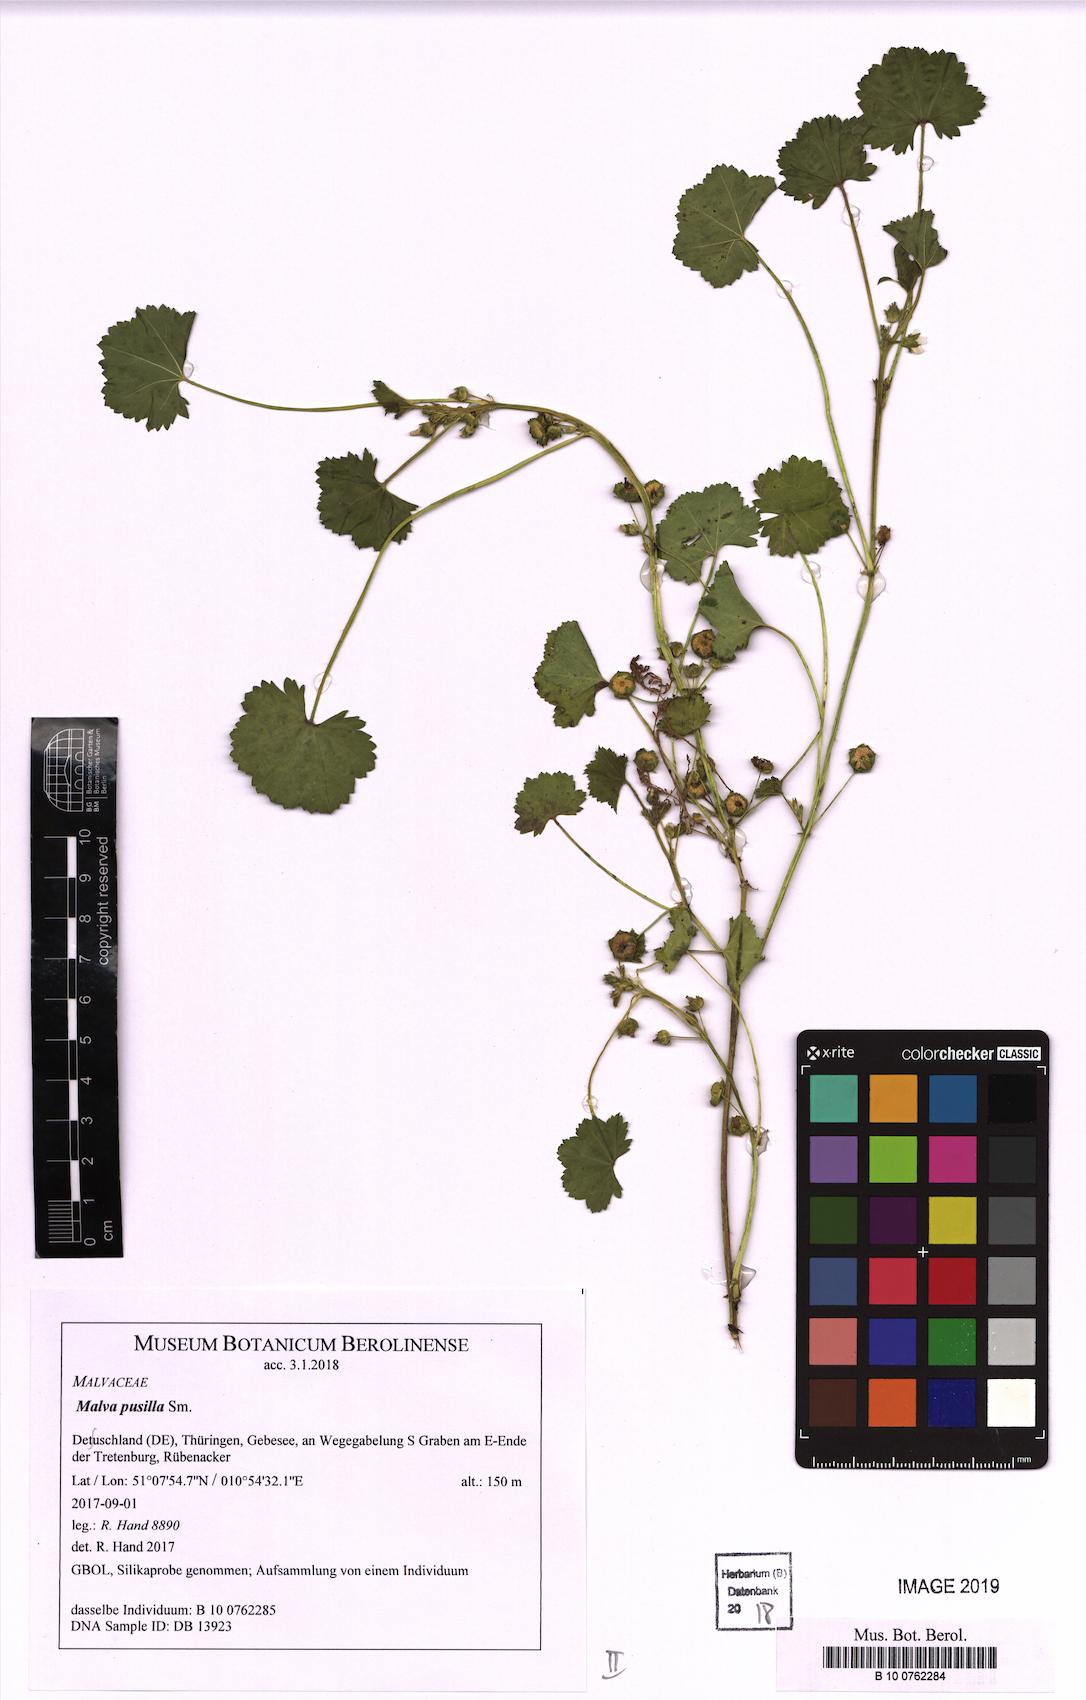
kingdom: Plantae
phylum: Tracheophyta
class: Magnoliopsida
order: Malvales
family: Malvaceae
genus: Malva
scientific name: Malva pusilla
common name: Small mallow
